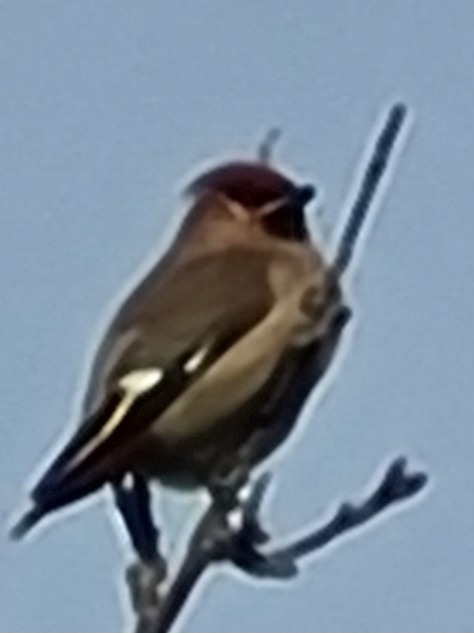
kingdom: Animalia
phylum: Chordata
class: Aves
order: Passeriformes
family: Bombycillidae
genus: Bombycilla
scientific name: Bombycilla garrulus
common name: Silkehale
